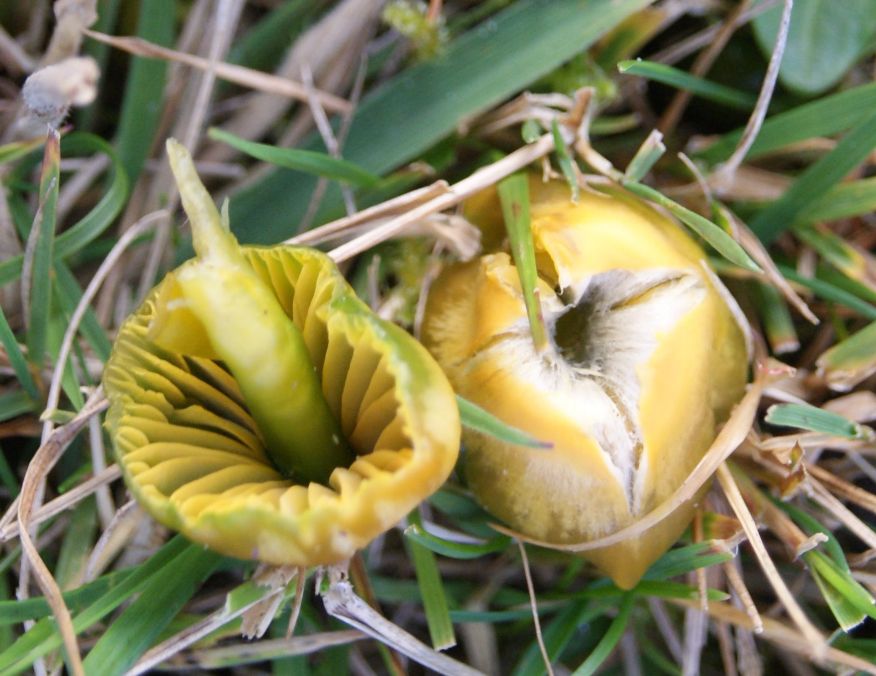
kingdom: Fungi
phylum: Basidiomycota
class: Agaricomycetes
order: Agaricales
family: Hygrophoraceae
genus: Gliophorus
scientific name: Gliophorus psittacinus
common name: papegøje-vokshat
